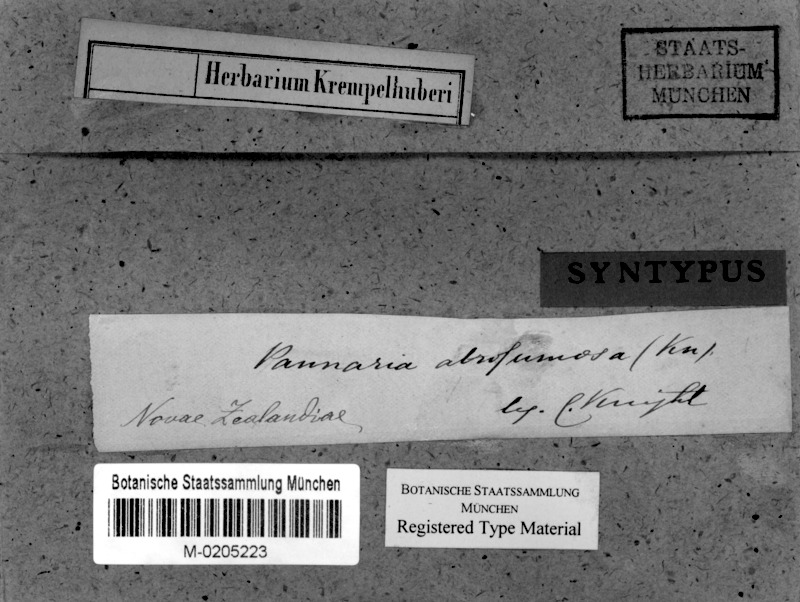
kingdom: Fungi
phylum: Ascomycota
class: Lecanoromycetes
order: Peltigerales
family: Pannariaceae
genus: Pannaria
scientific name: Pannaria immixta
